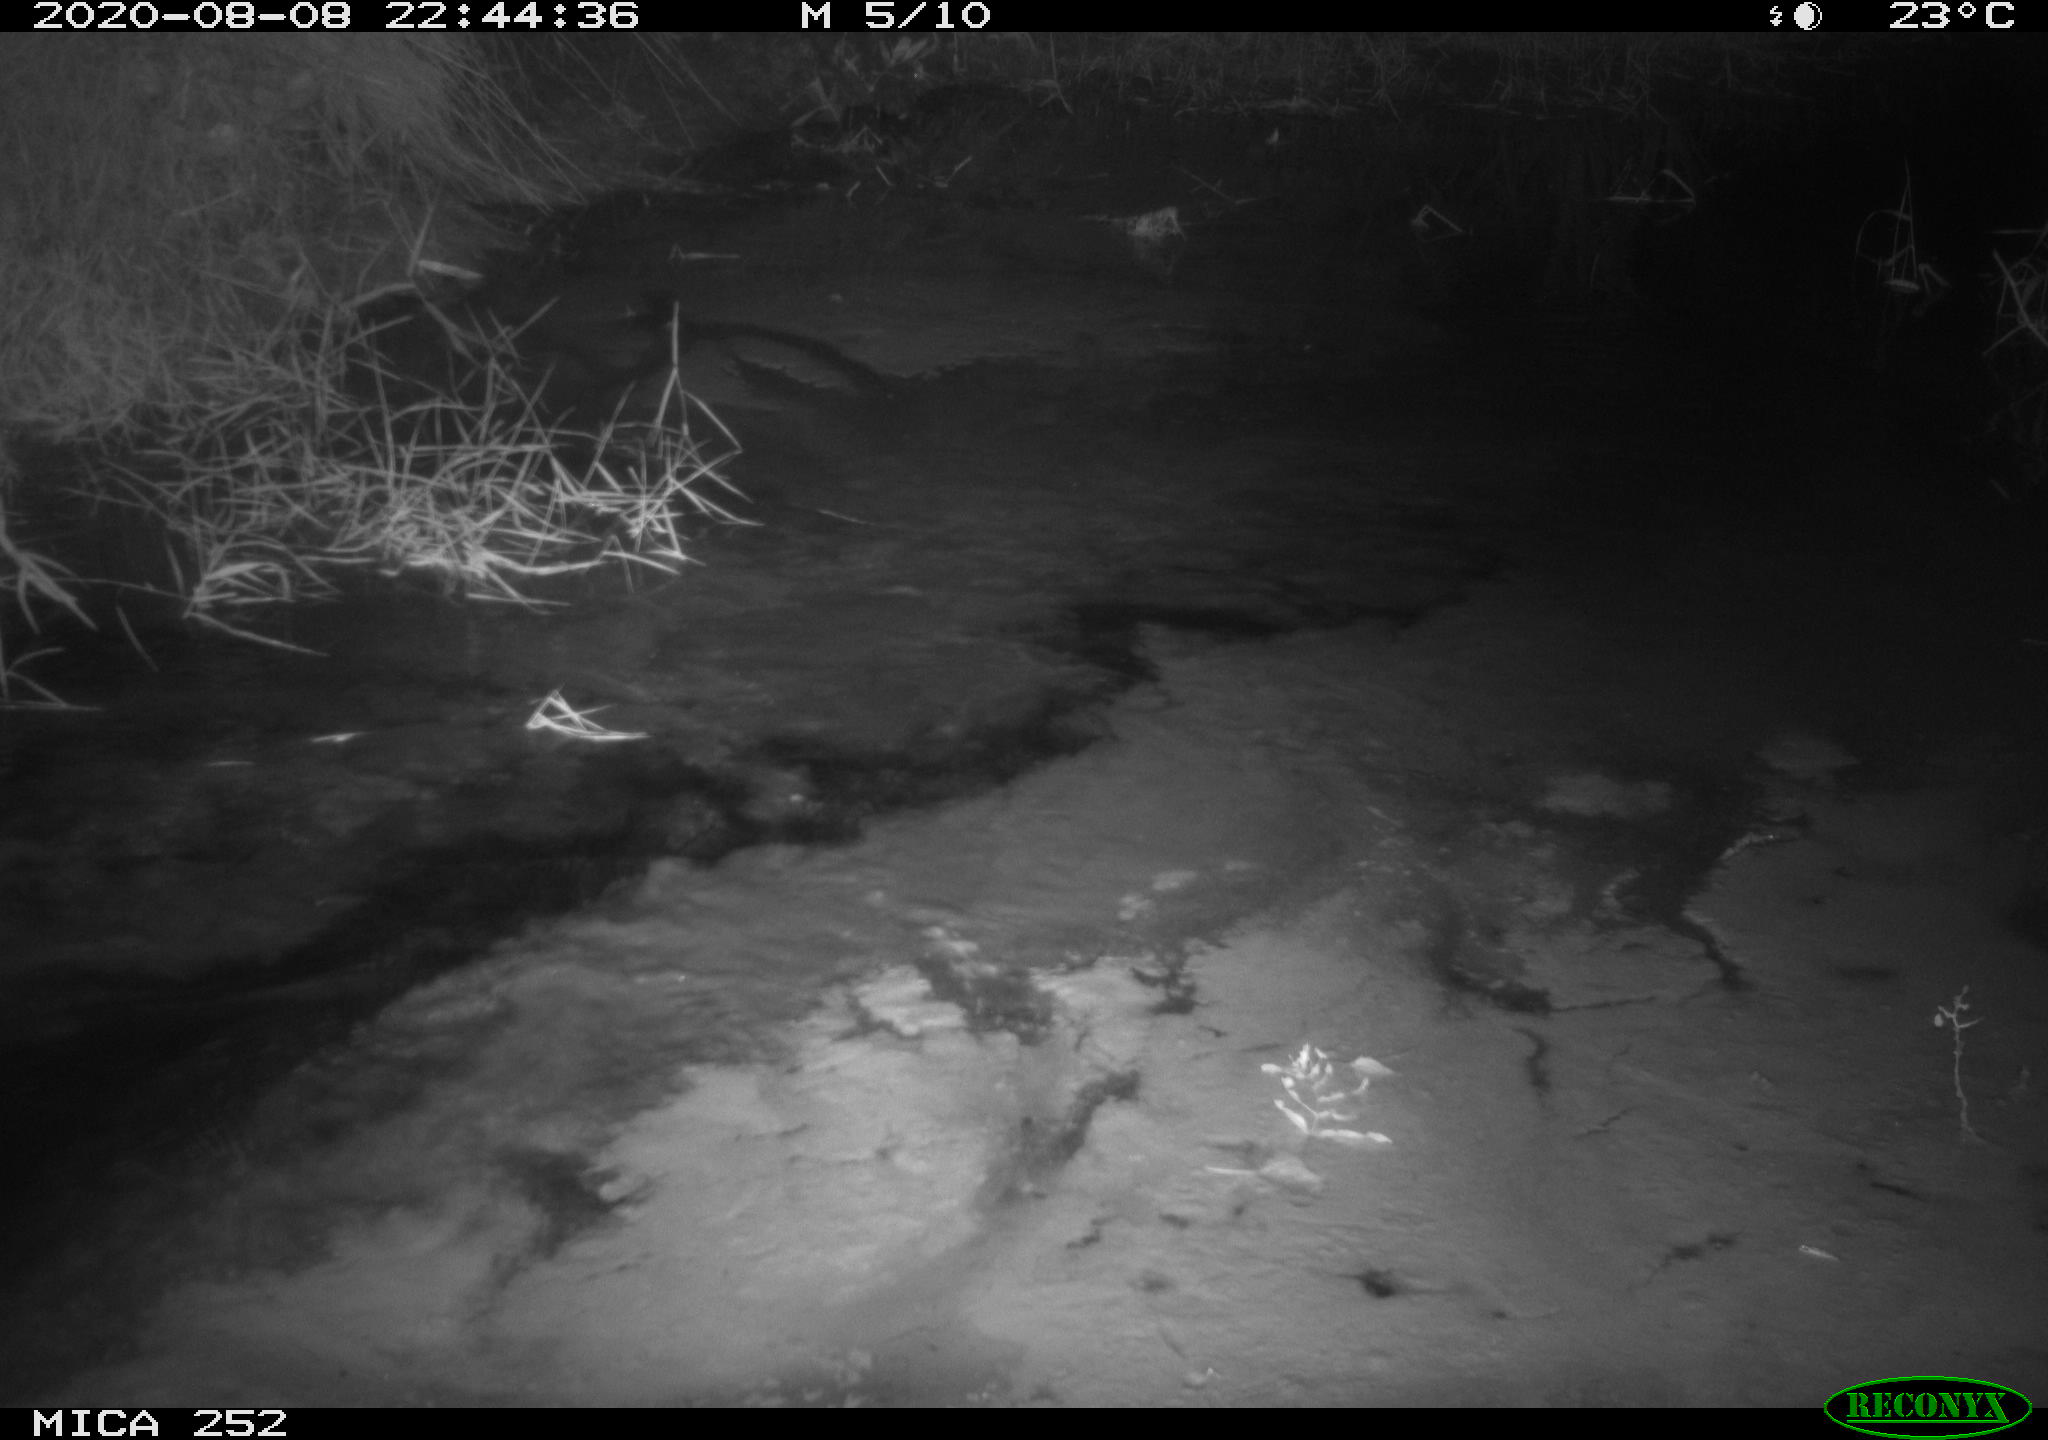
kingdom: Animalia
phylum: Chordata
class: Mammalia
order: Rodentia
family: Castoridae
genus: Castor
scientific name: Castor fiber
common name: Eurasian beaver
